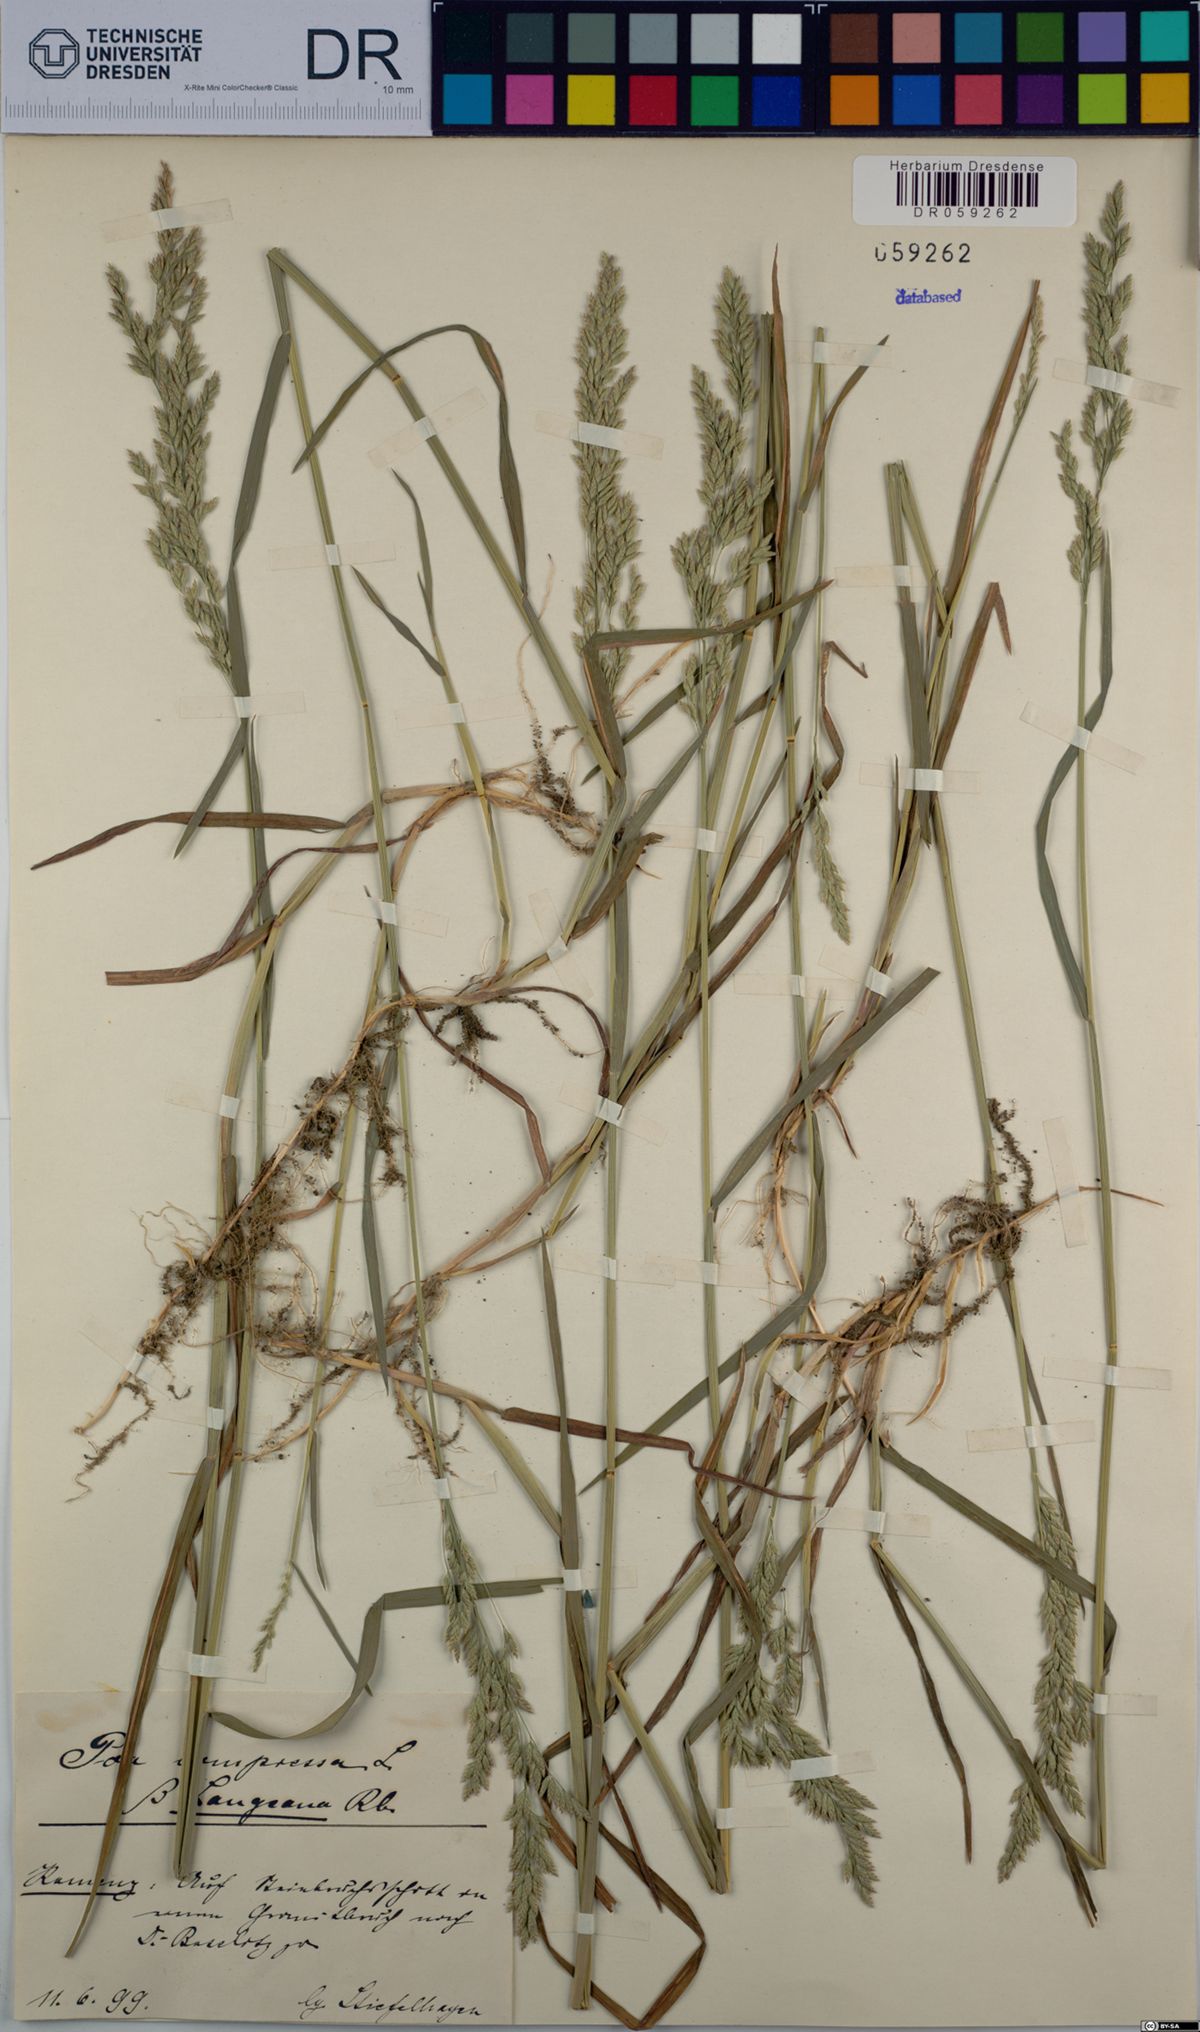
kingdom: Plantae
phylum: Tracheophyta
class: Liliopsida
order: Poales
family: Poaceae
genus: Poa
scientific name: Poa compressa
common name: Canada bluegrass
